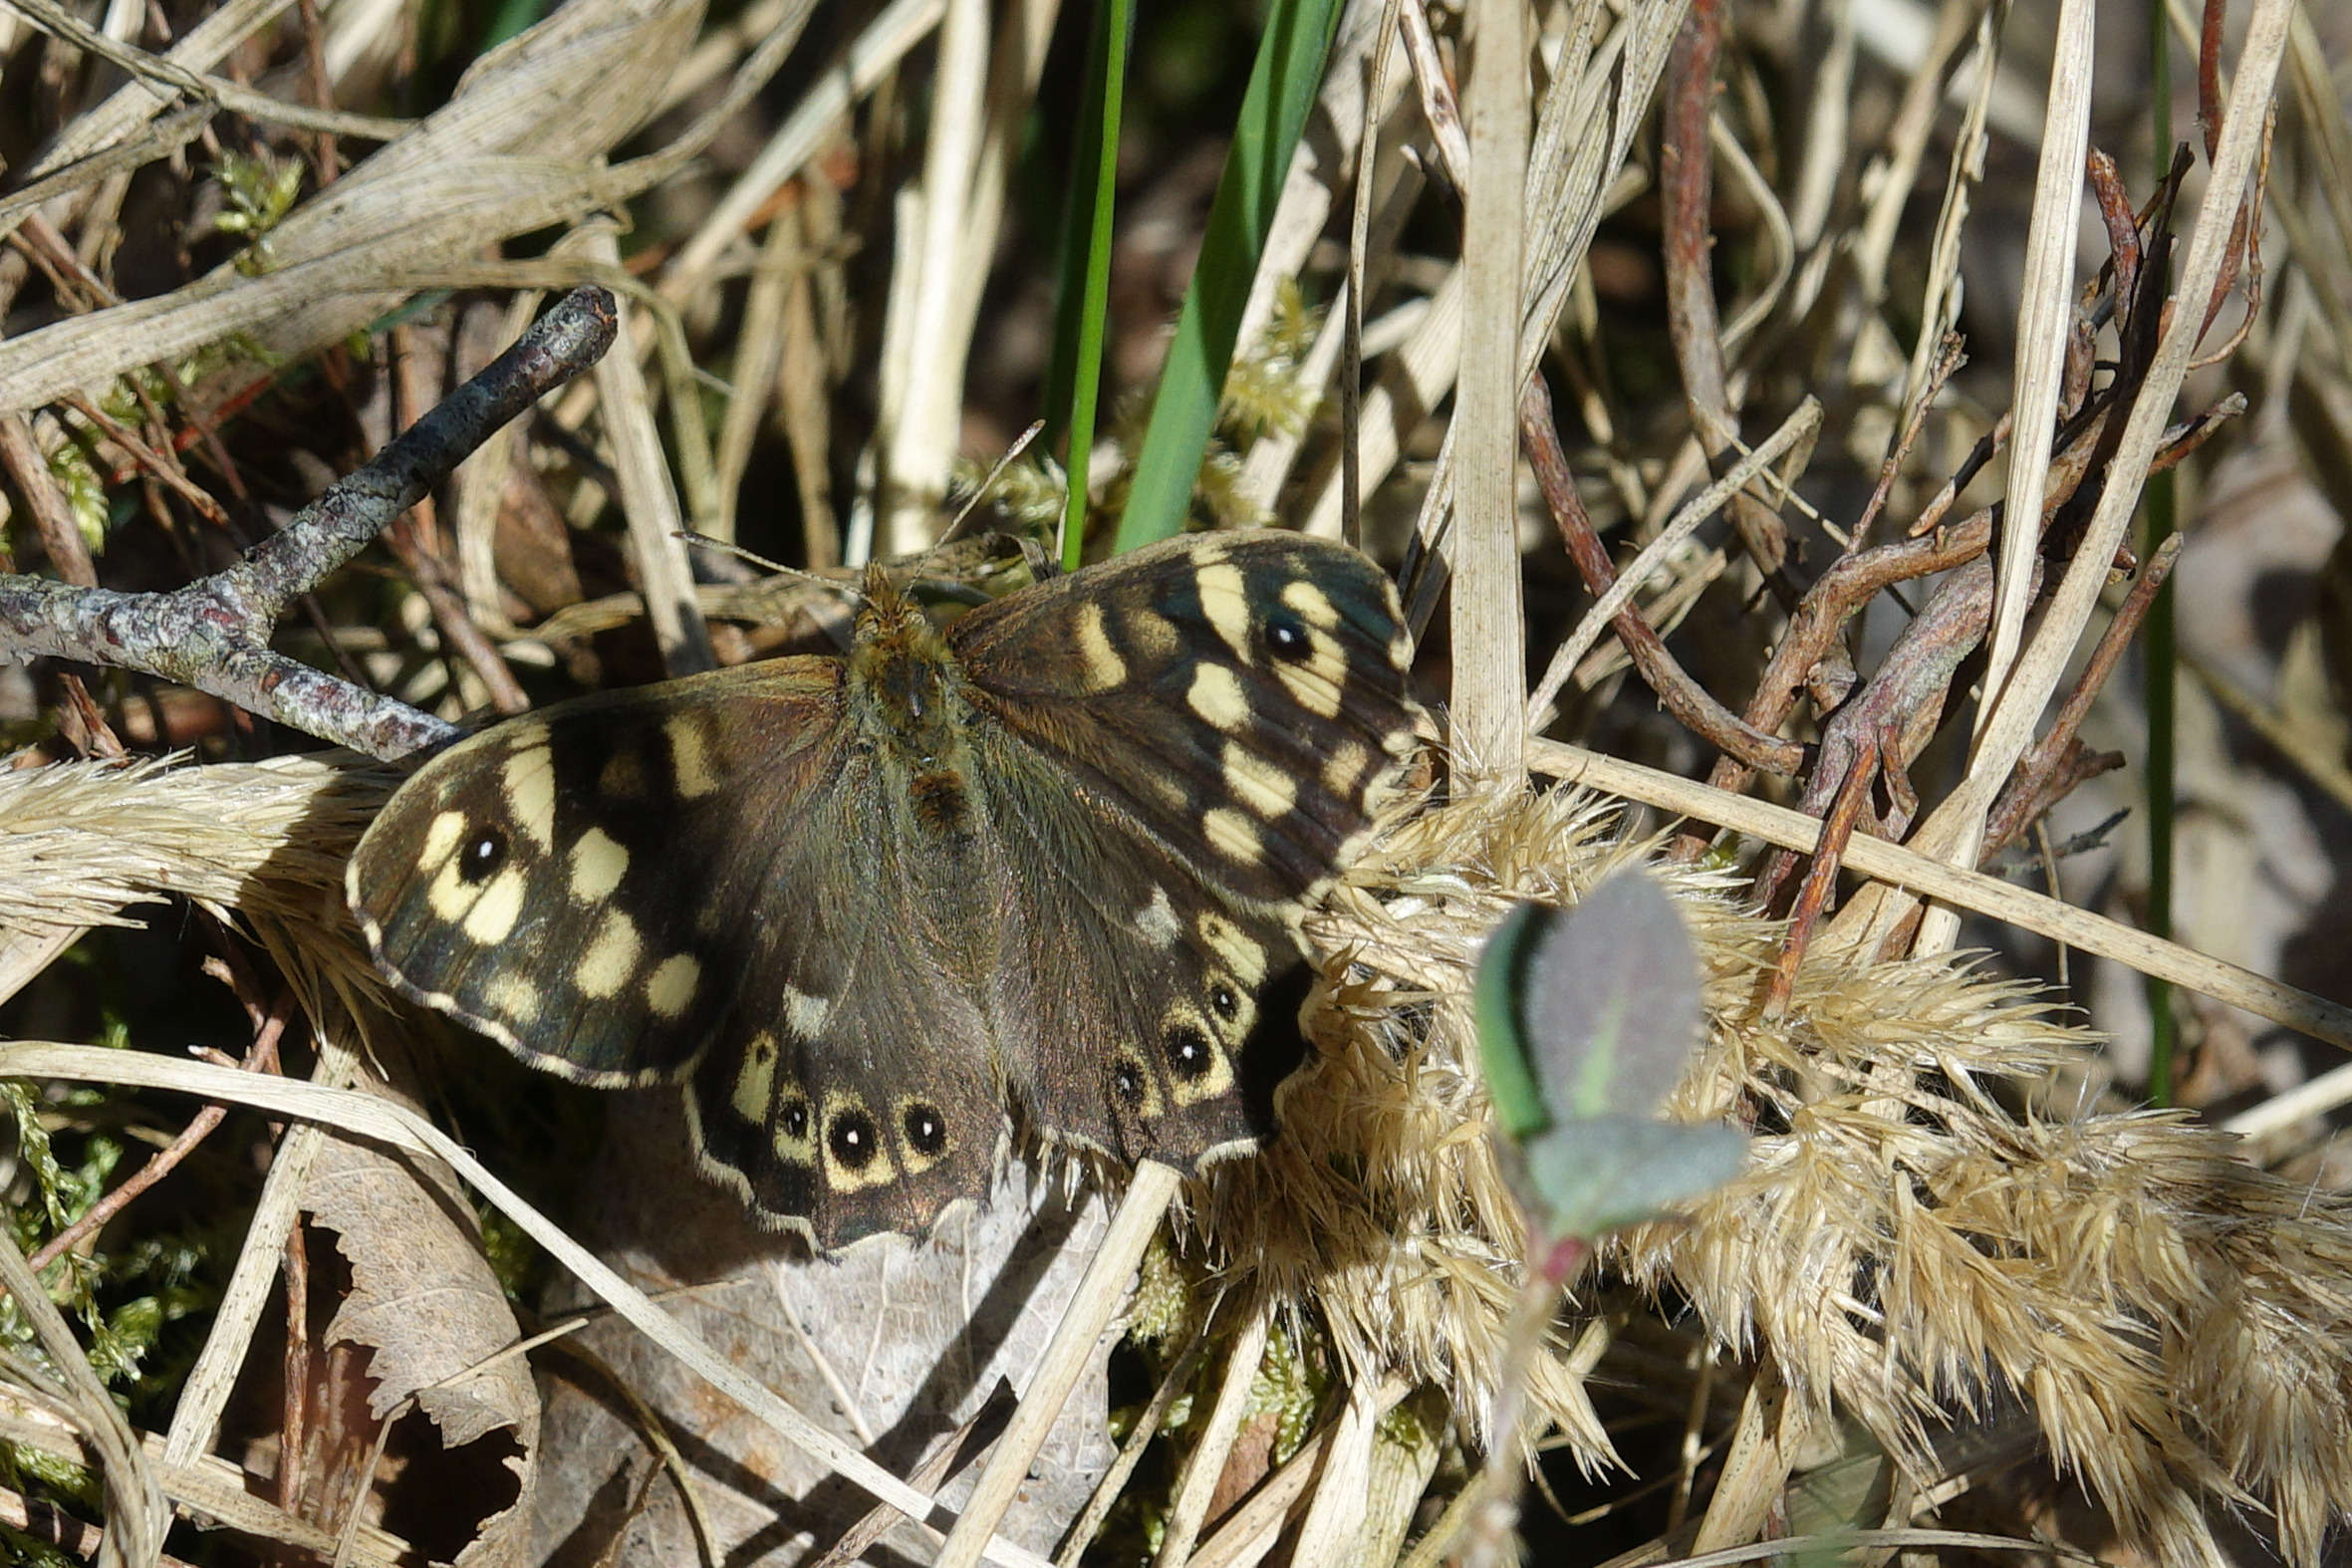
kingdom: Animalia
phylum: Arthropoda
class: Insecta
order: Lepidoptera
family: Nymphalidae
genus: Pararge
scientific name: Pararge aegeria
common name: Skovrandøje
